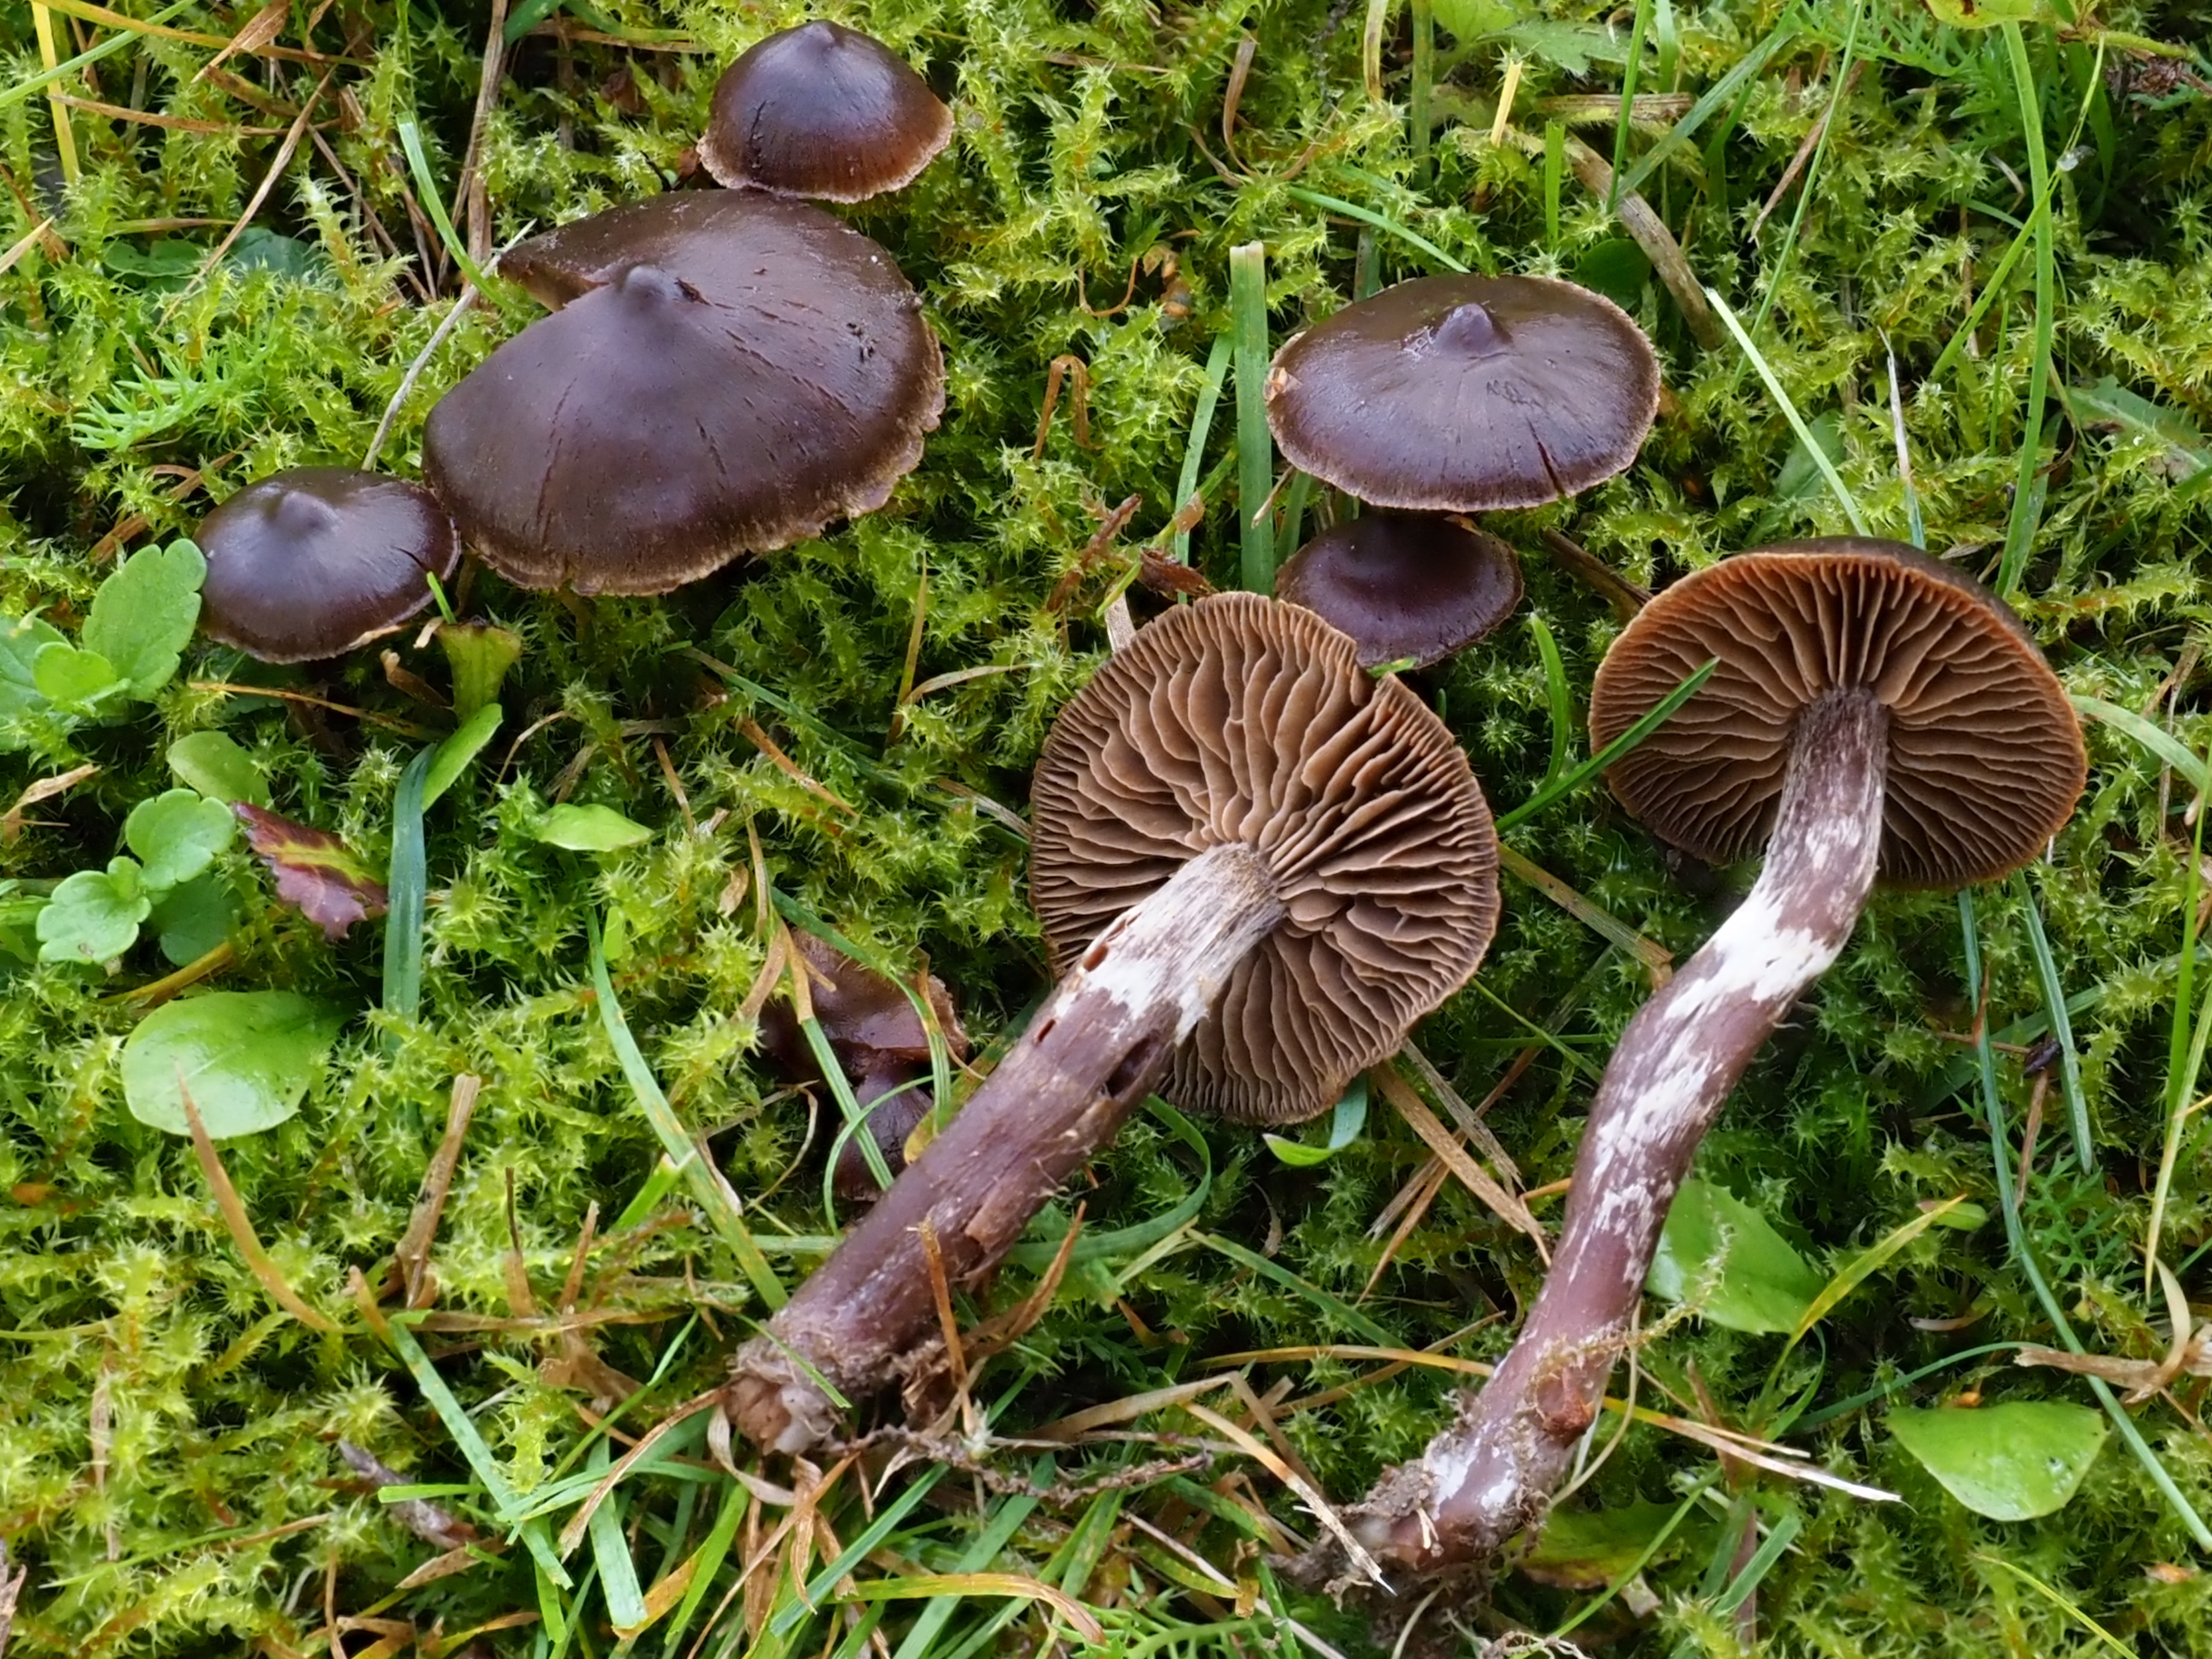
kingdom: Fungi
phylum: Basidiomycota
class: Agaricomycetes
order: Agaricales
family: Cortinariaceae
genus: Cortinarius
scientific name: Cortinarius umbrinolens
